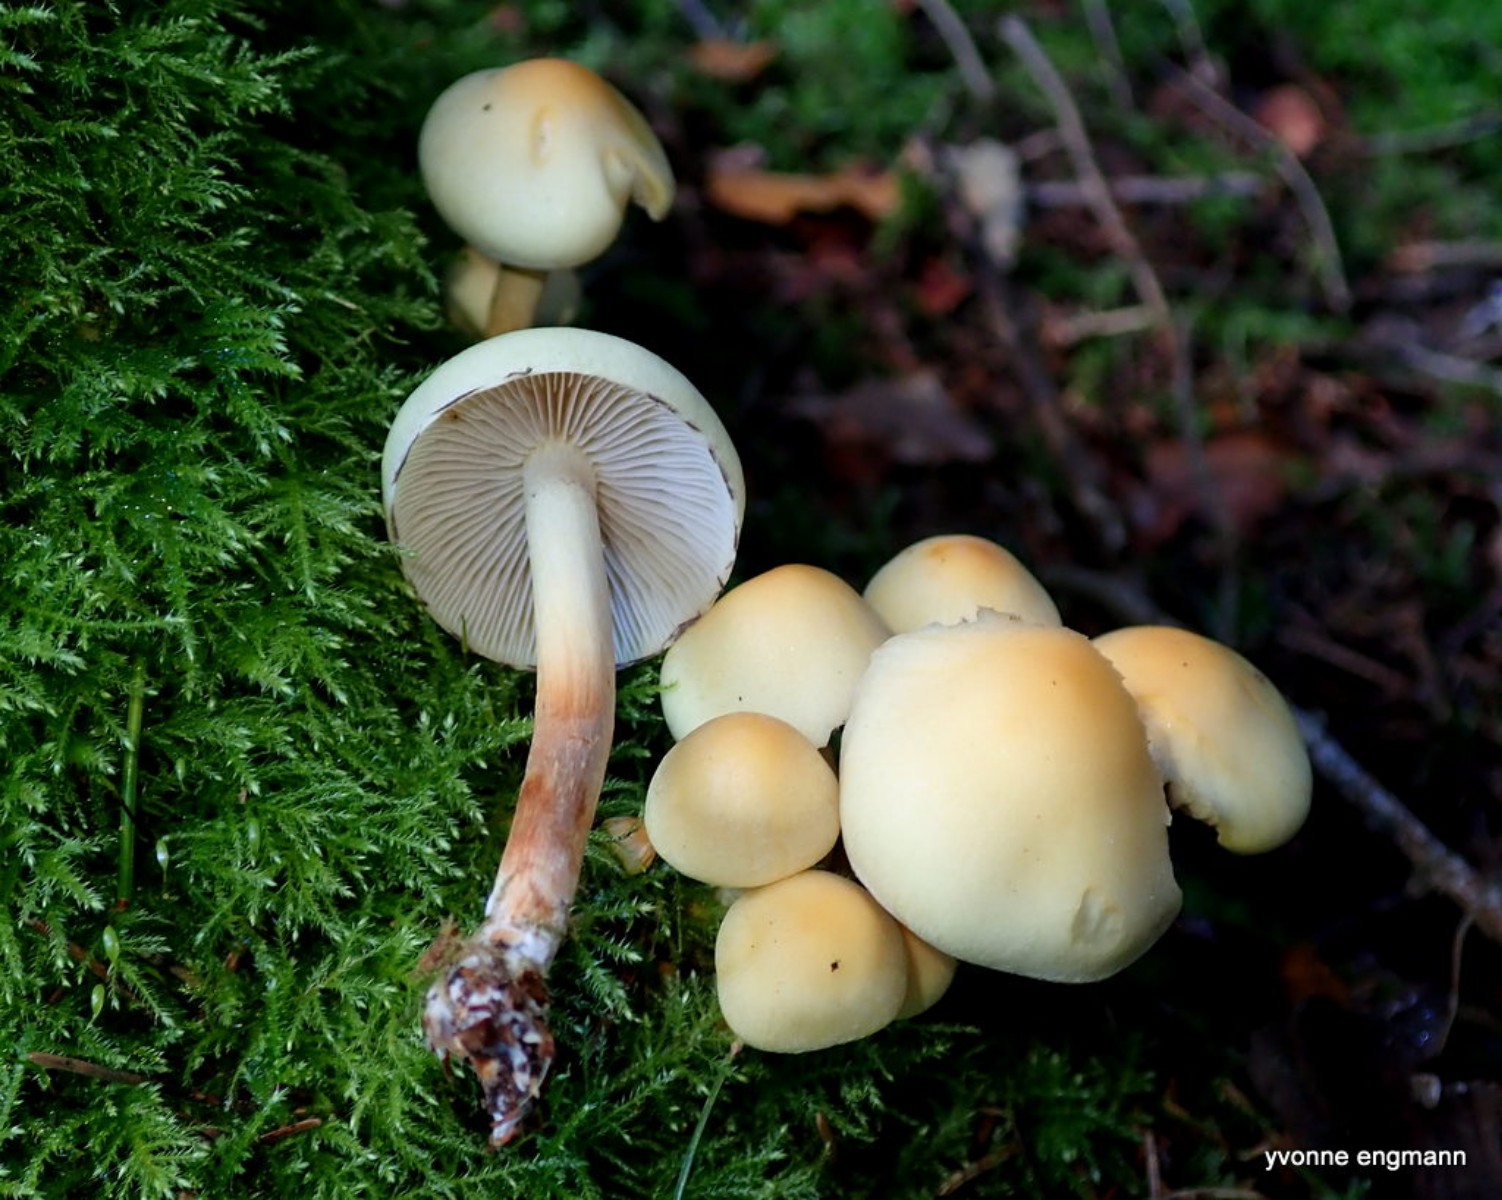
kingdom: Fungi
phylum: Basidiomycota
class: Agaricomycetes
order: Agaricales
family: Strophariaceae
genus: Hypholoma
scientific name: Hypholoma capnoides
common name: gran-svovlhat
